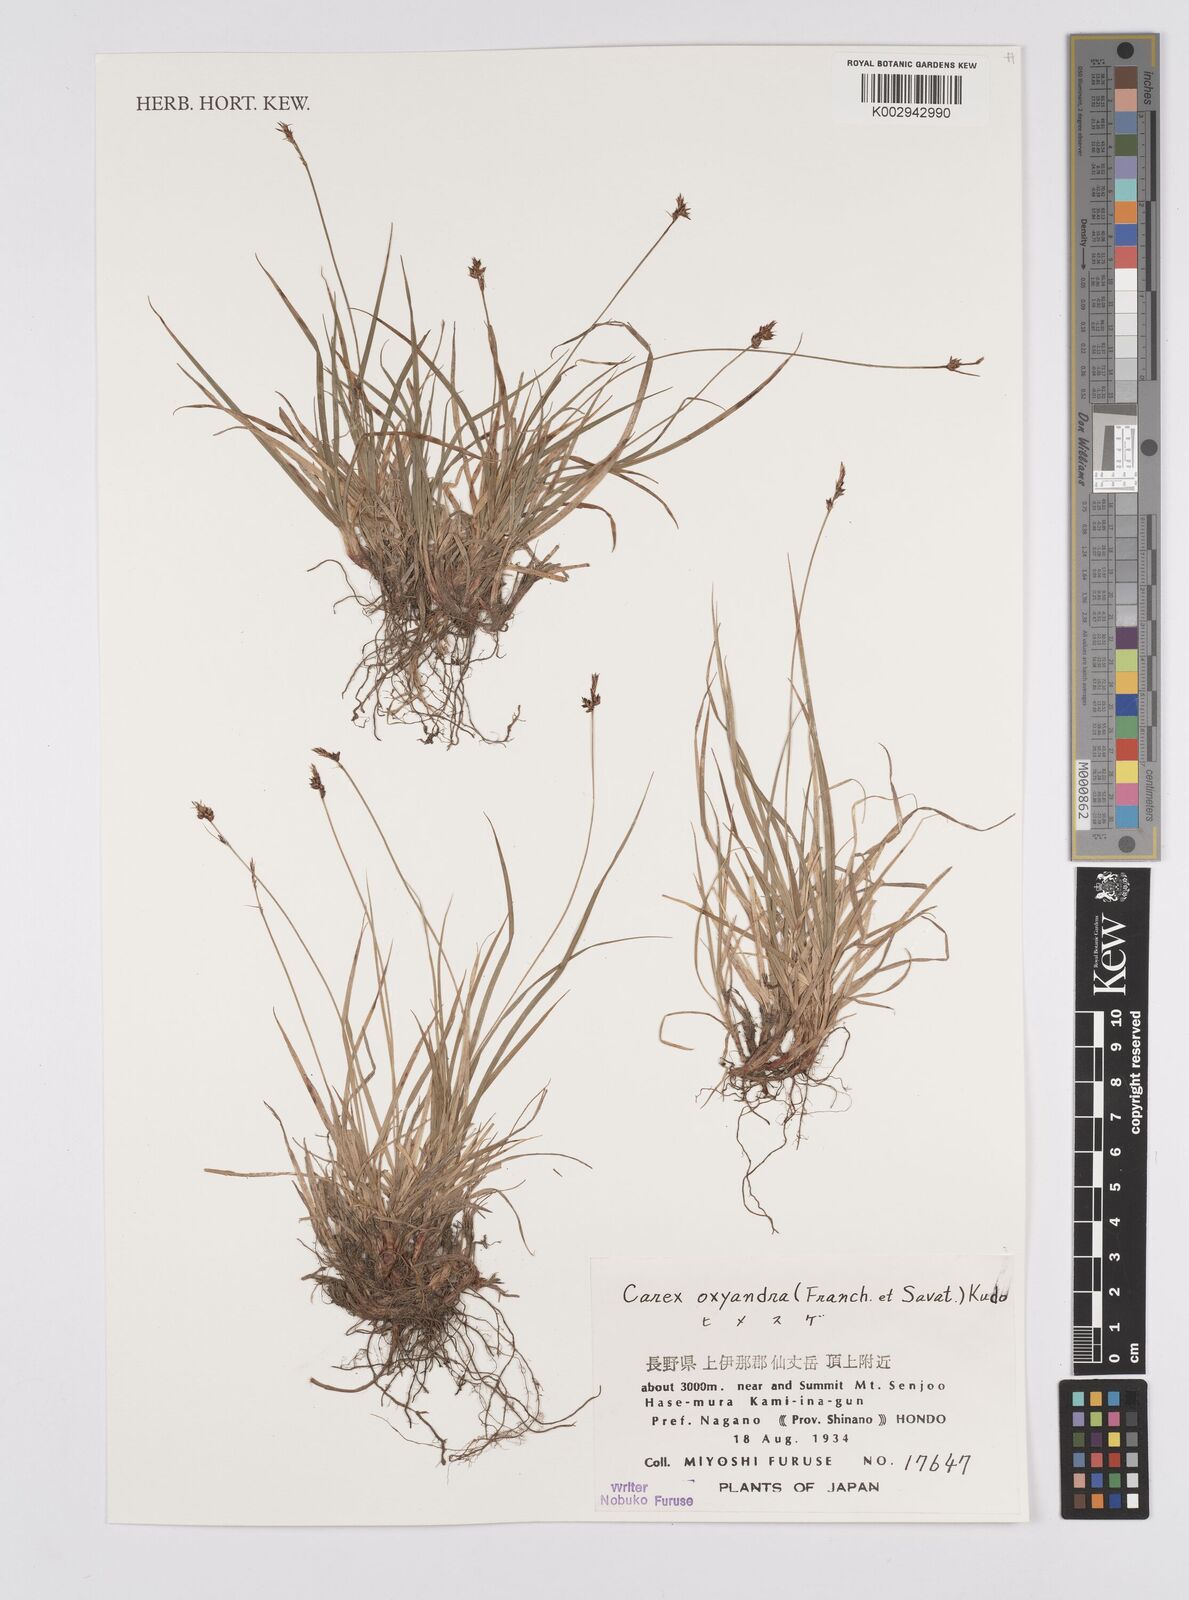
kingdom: Plantae
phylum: Tracheophyta
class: Liliopsida
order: Poales
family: Cyperaceae
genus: Carex
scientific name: Carex oxyandra
